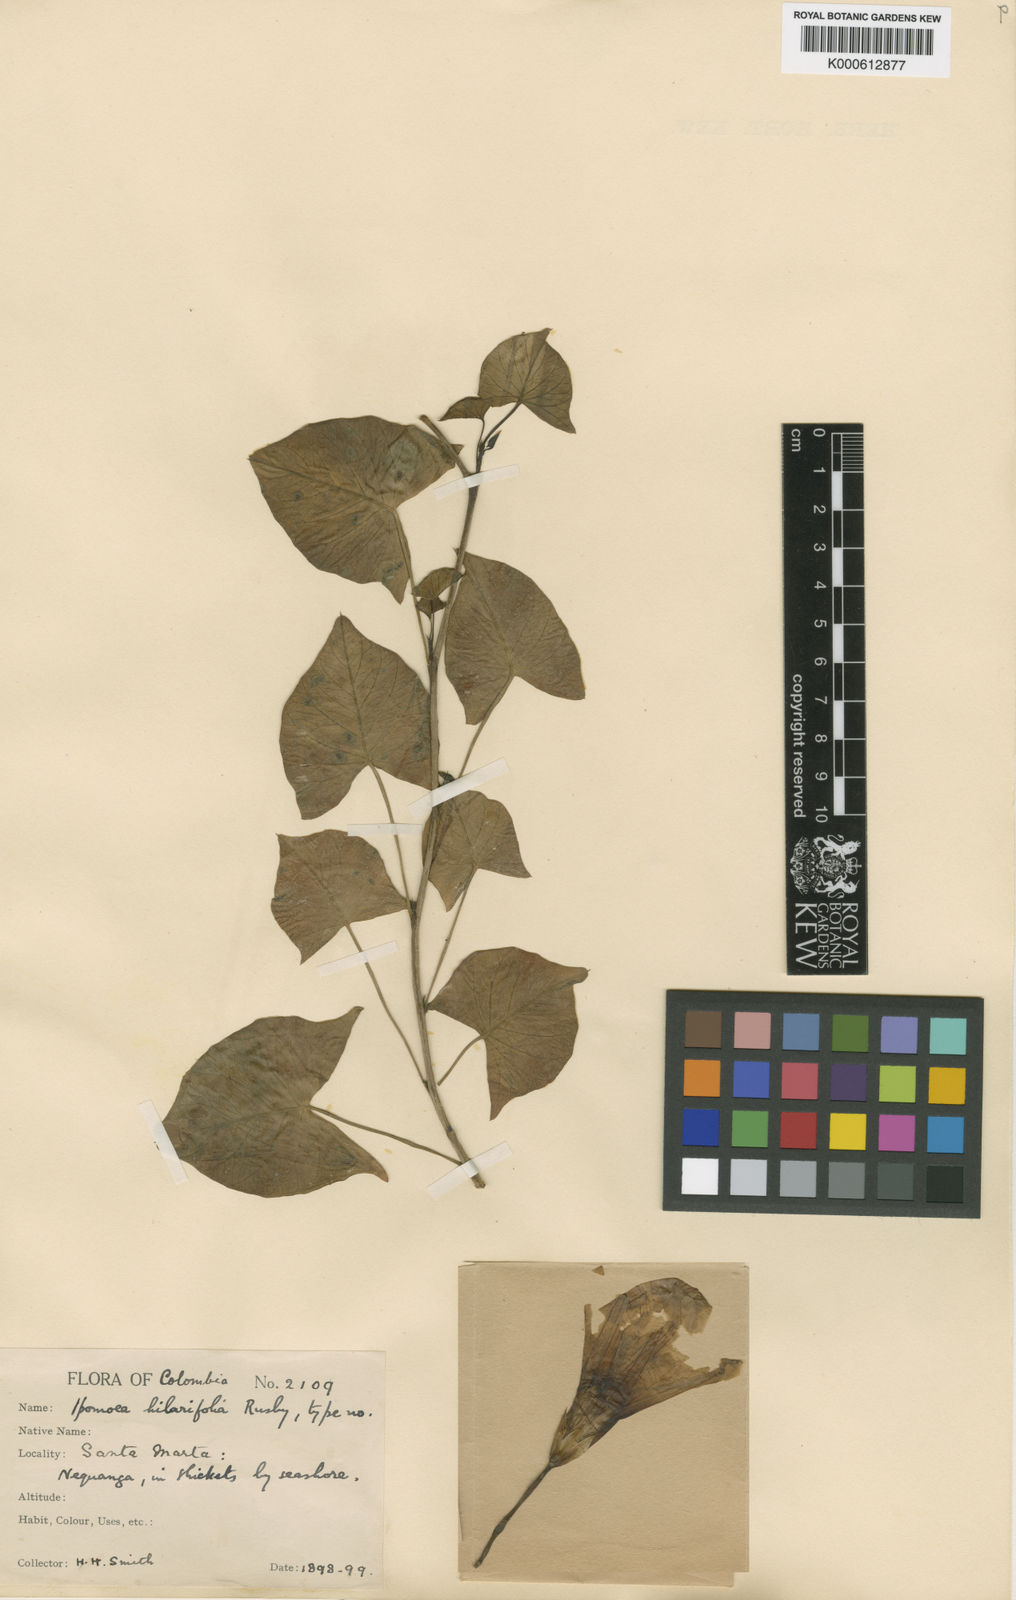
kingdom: Plantae
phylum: Tracheophyta
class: Magnoliopsida
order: Solanales
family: Convolvulaceae
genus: Ipomoea
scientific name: Ipomoea incarnata
